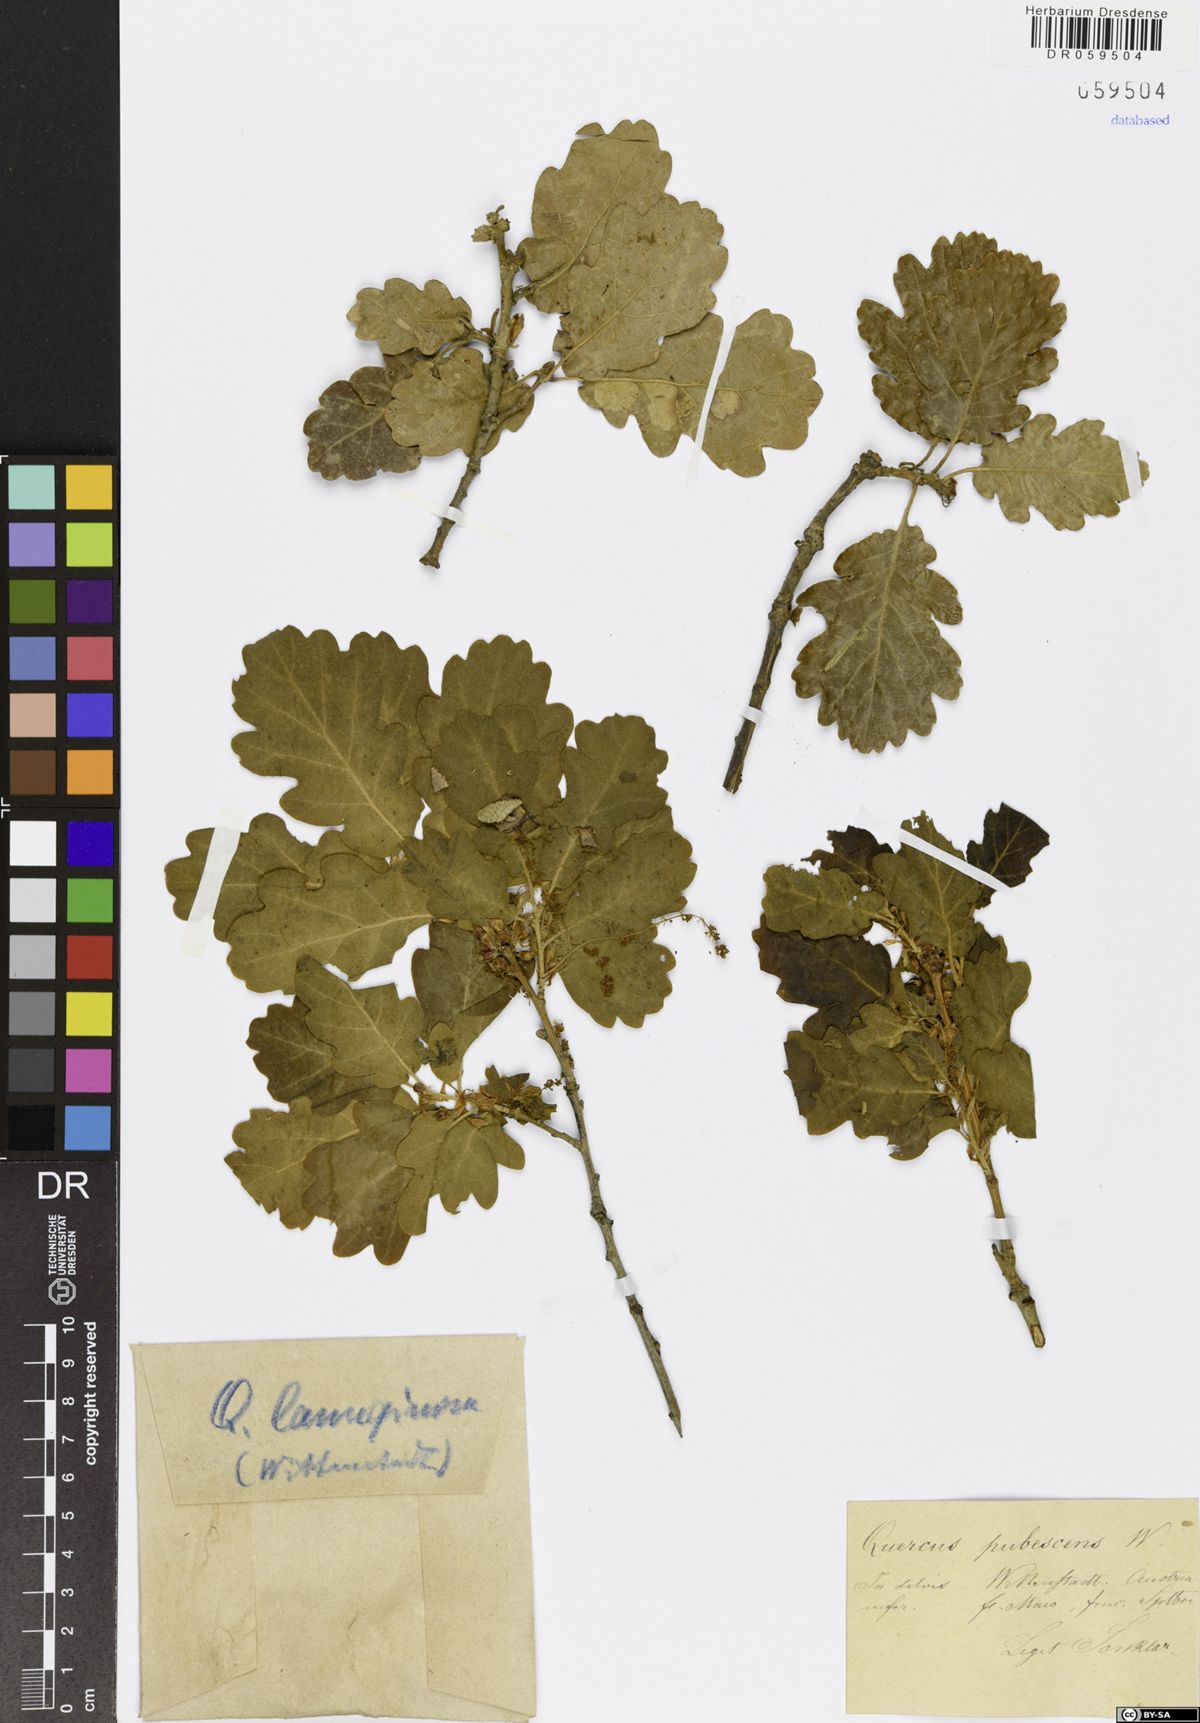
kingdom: Plantae
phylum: Tracheophyta
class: Magnoliopsida
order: Fagales
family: Fagaceae
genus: Quercus
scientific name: Quercus pubescens
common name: Downy oak
